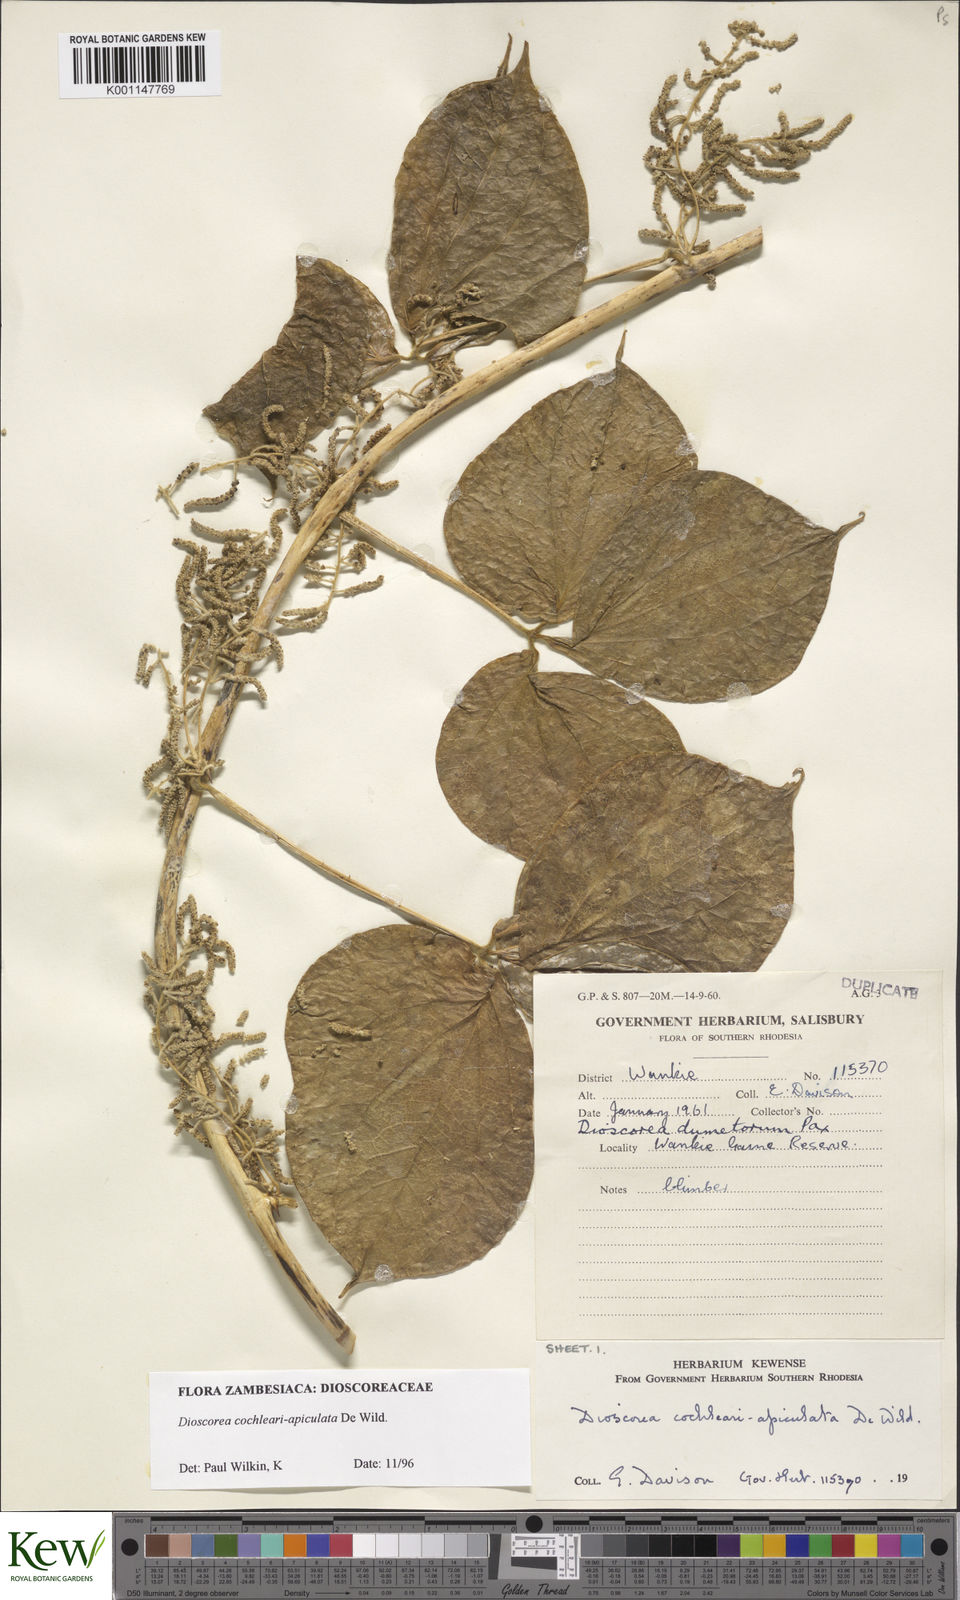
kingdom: Plantae
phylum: Tracheophyta
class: Liliopsida
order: Dioscoreales
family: Dioscoreaceae
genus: Dioscorea
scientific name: Dioscorea cochleariapiculata
